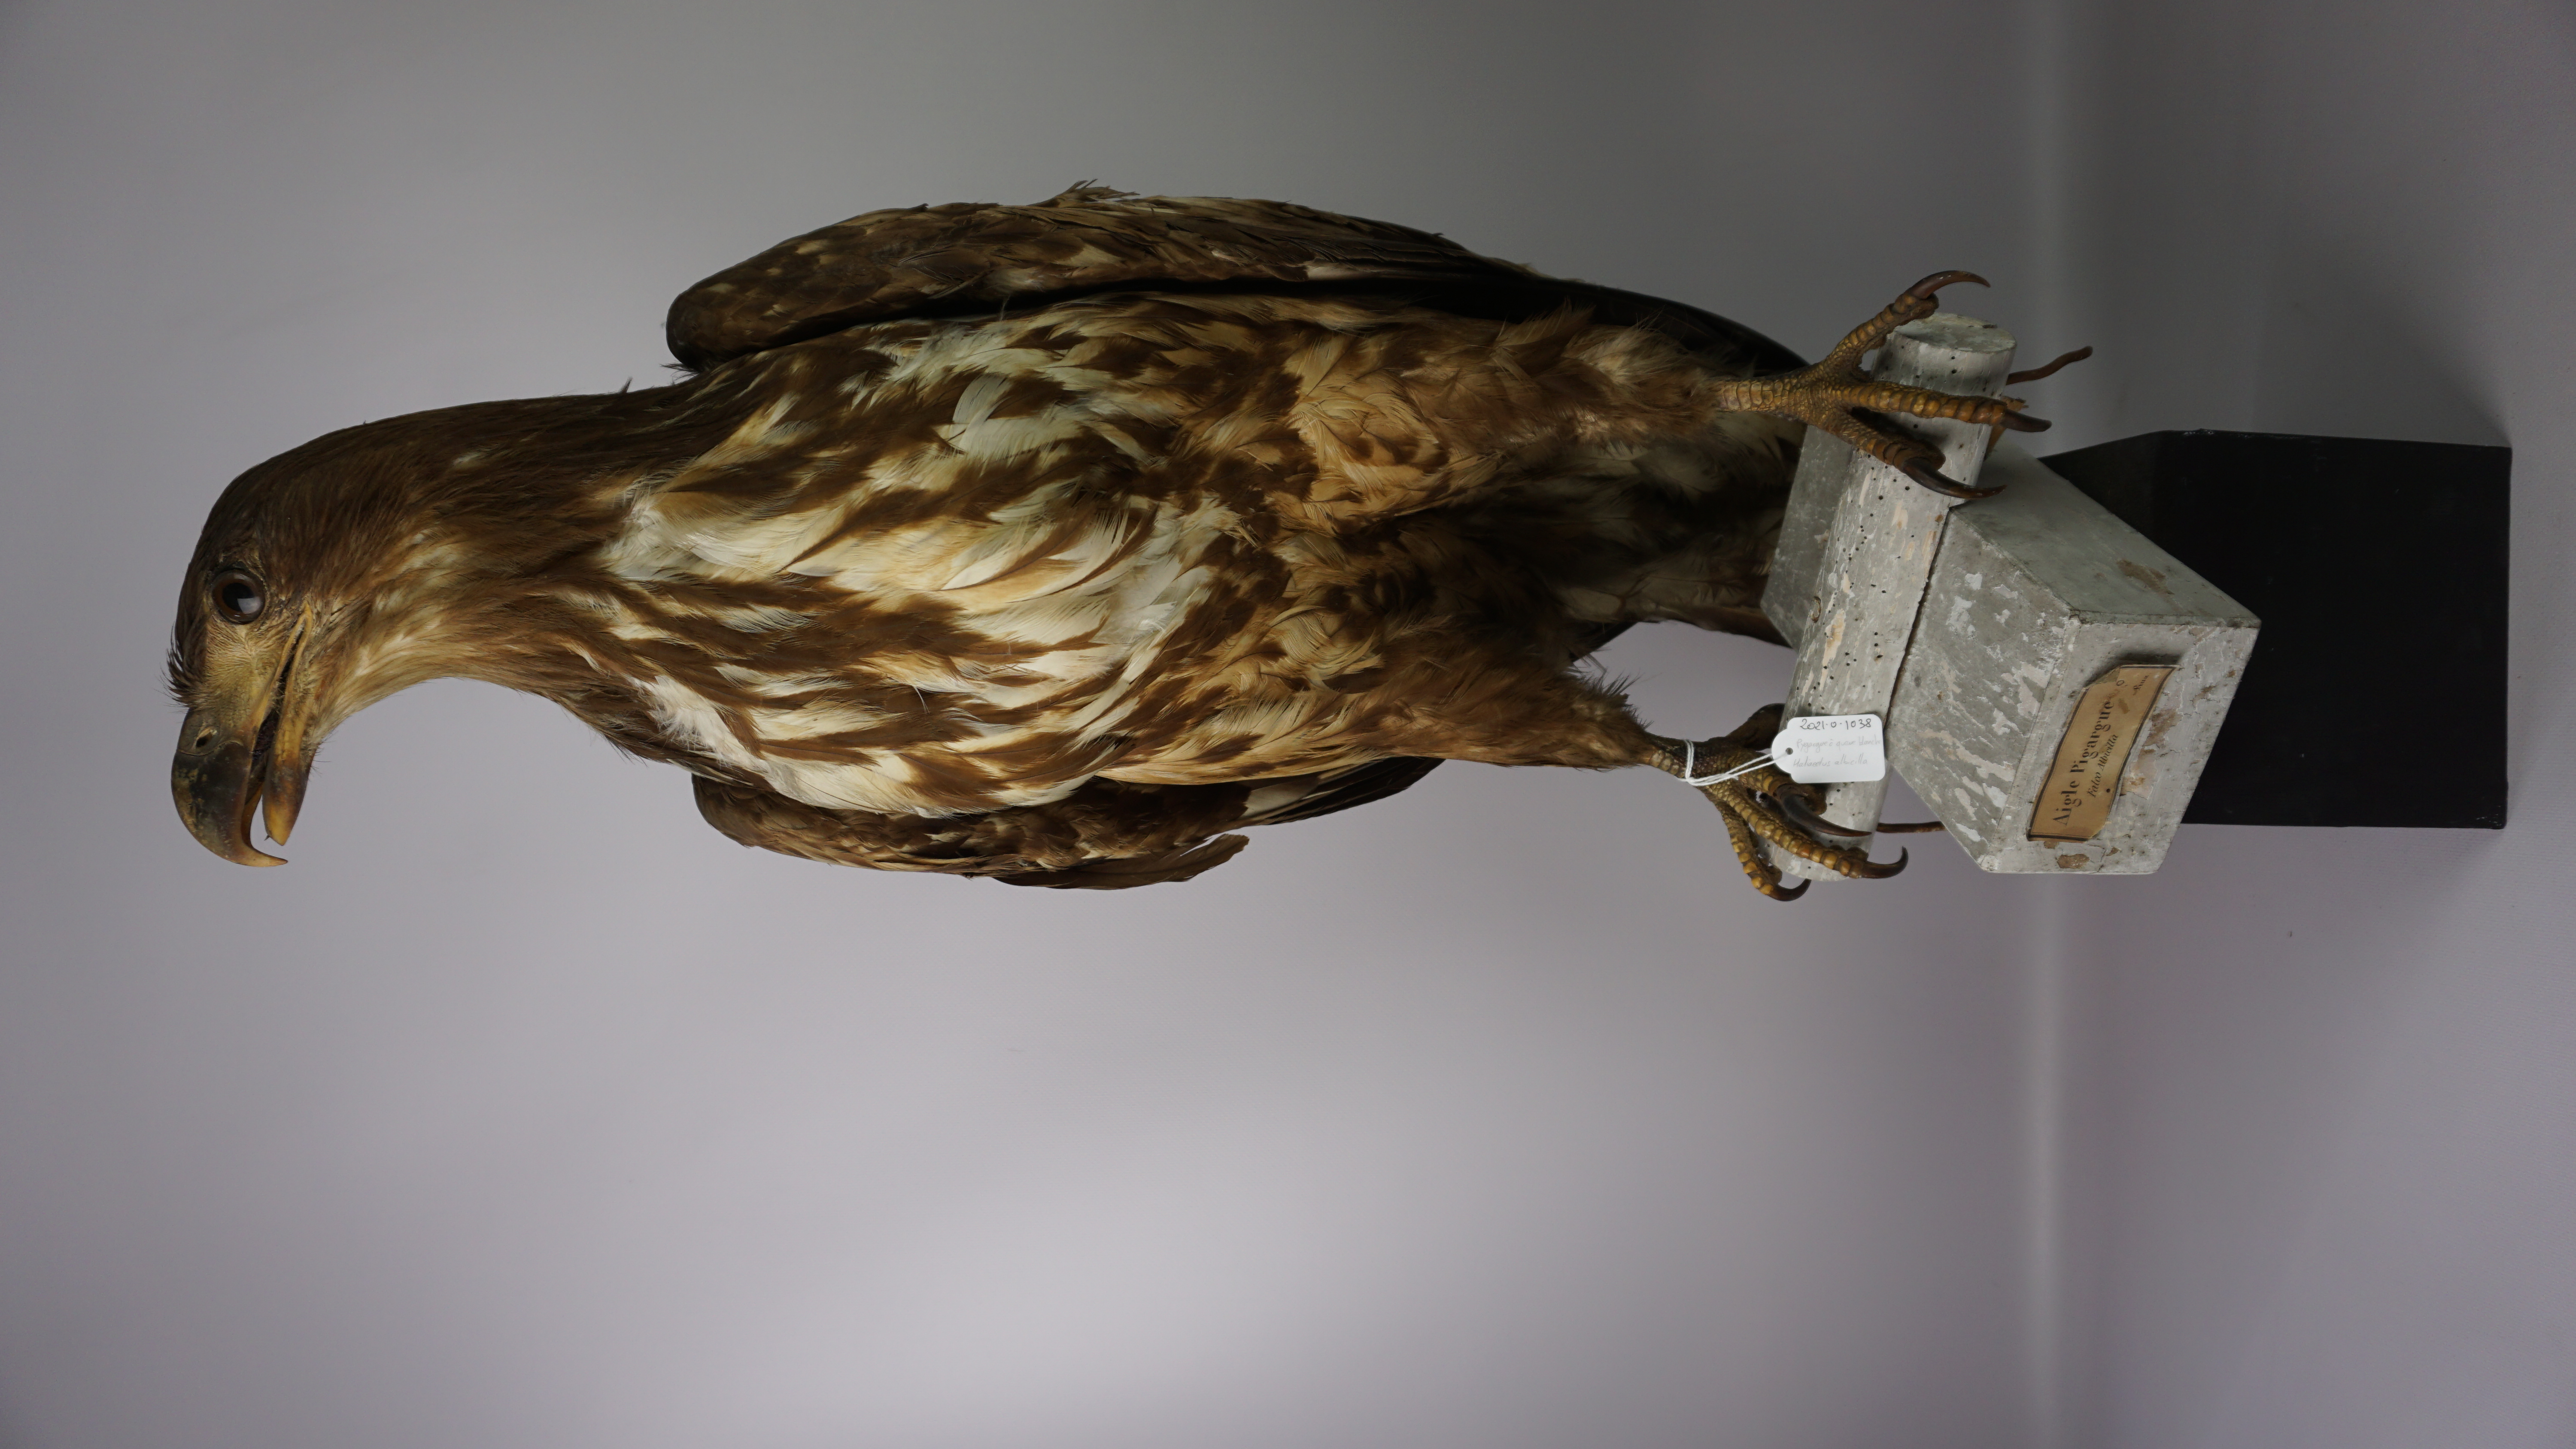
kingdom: Animalia
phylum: Chordata
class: Aves
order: Accipitriformes
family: Accipitridae
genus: Haliaeetus
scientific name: Haliaeetus albicilla
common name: White-tailed eagle
